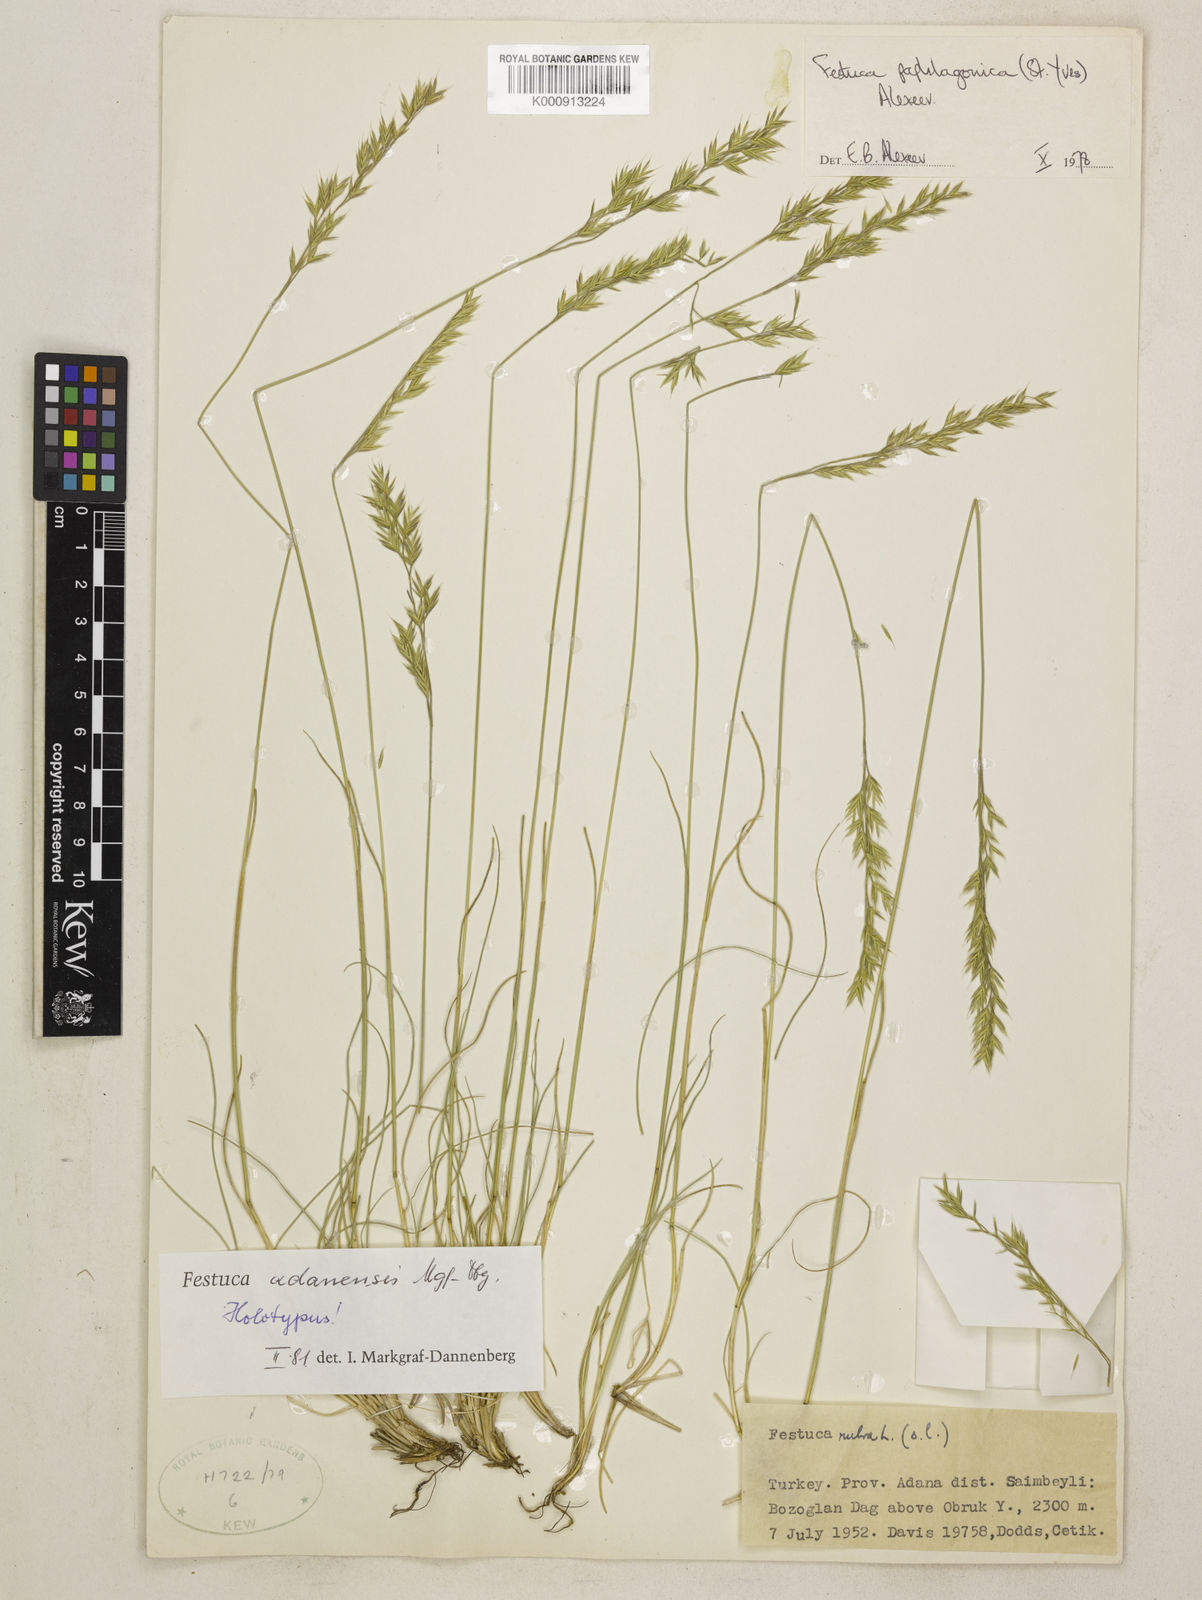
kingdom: Plantae
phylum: Tracheophyta
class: Liliopsida
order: Poales
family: Poaceae
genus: Festuca
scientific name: Festuca adanensis
